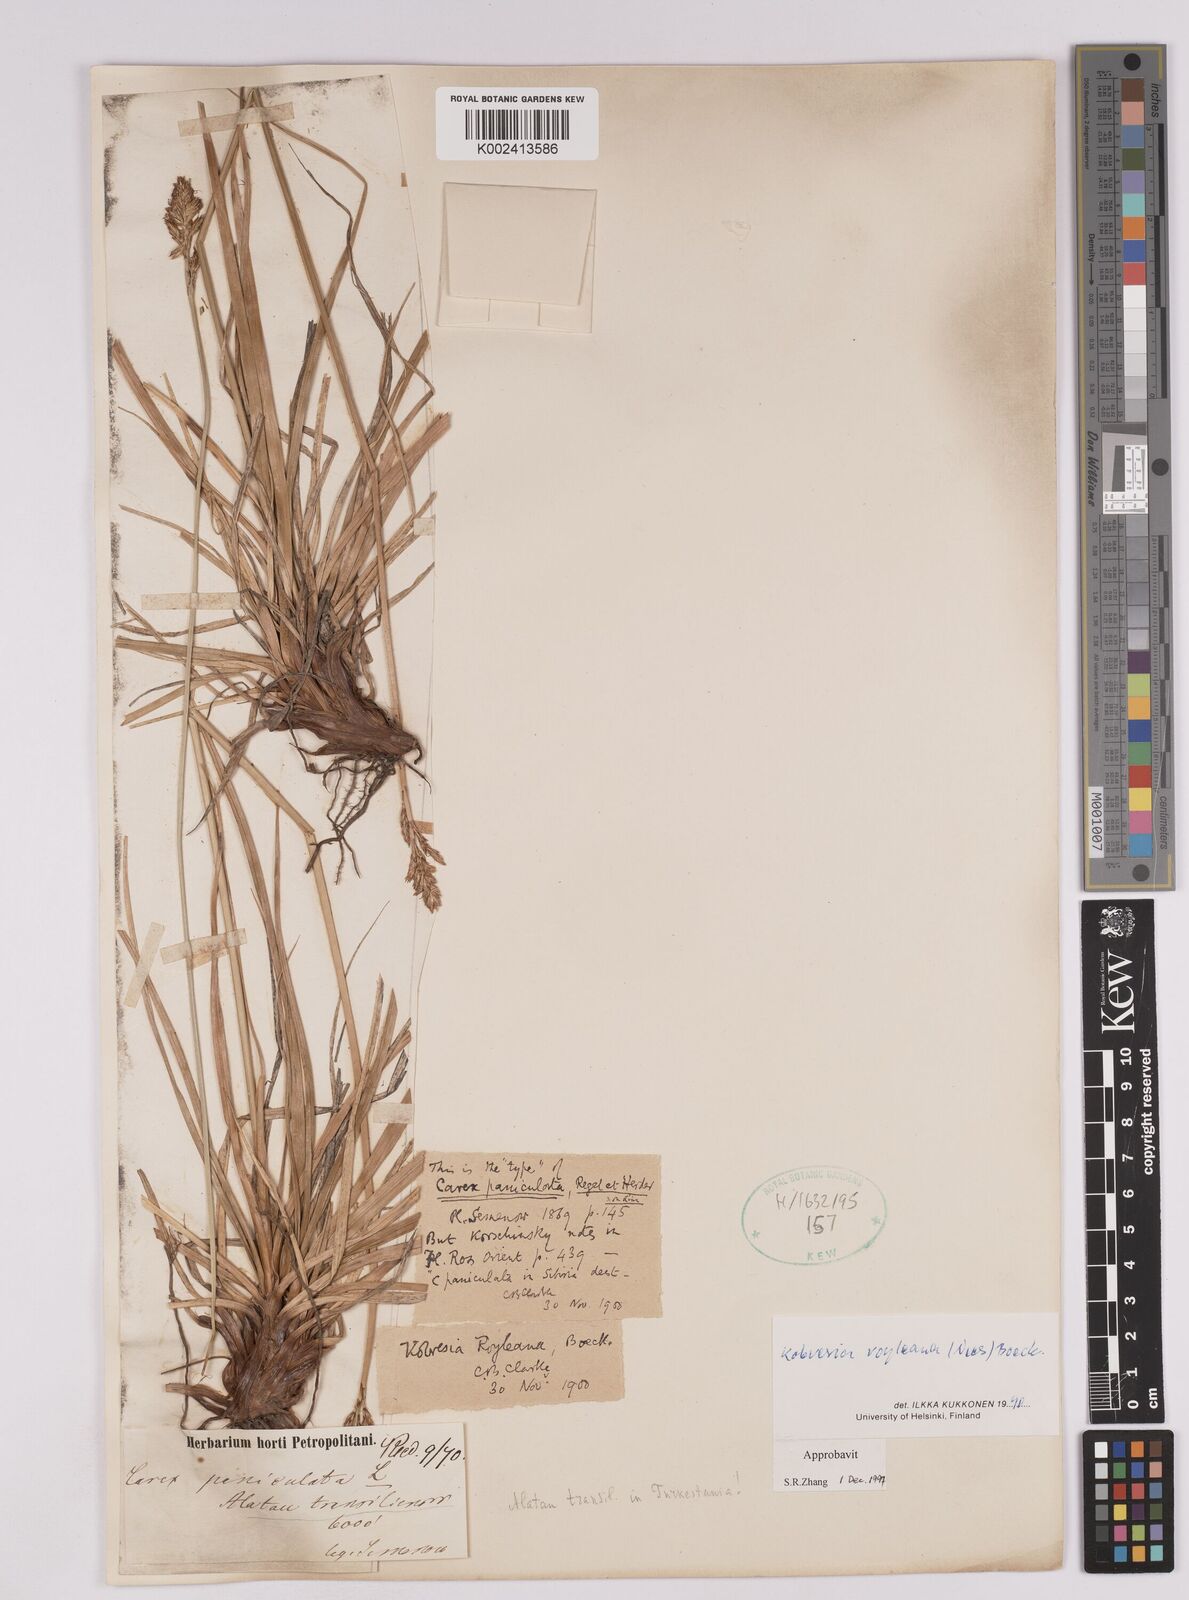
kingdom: Plantae
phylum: Tracheophyta
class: Liliopsida
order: Poales
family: Cyperaceae
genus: Carex
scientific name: Carex kokanica
